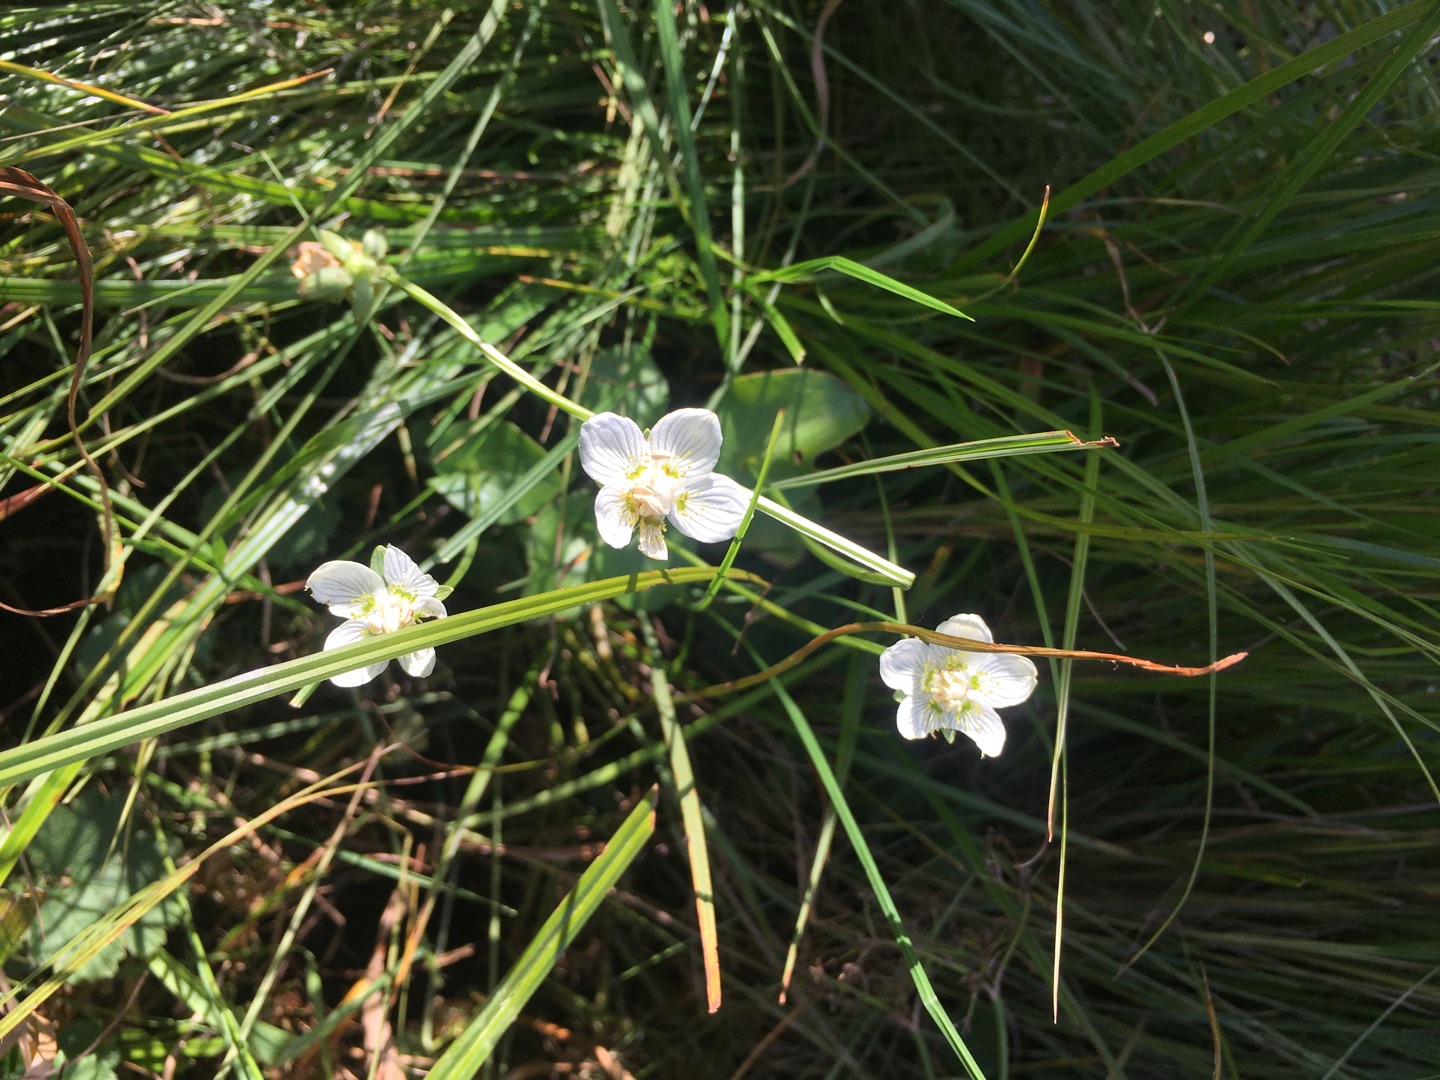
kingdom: Plantae
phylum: Tracheophyta
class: Magnoliopsida
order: Celastrales
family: Parnassiaceae
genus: Parnassia
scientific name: Parnassia palustris
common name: Leverurt
